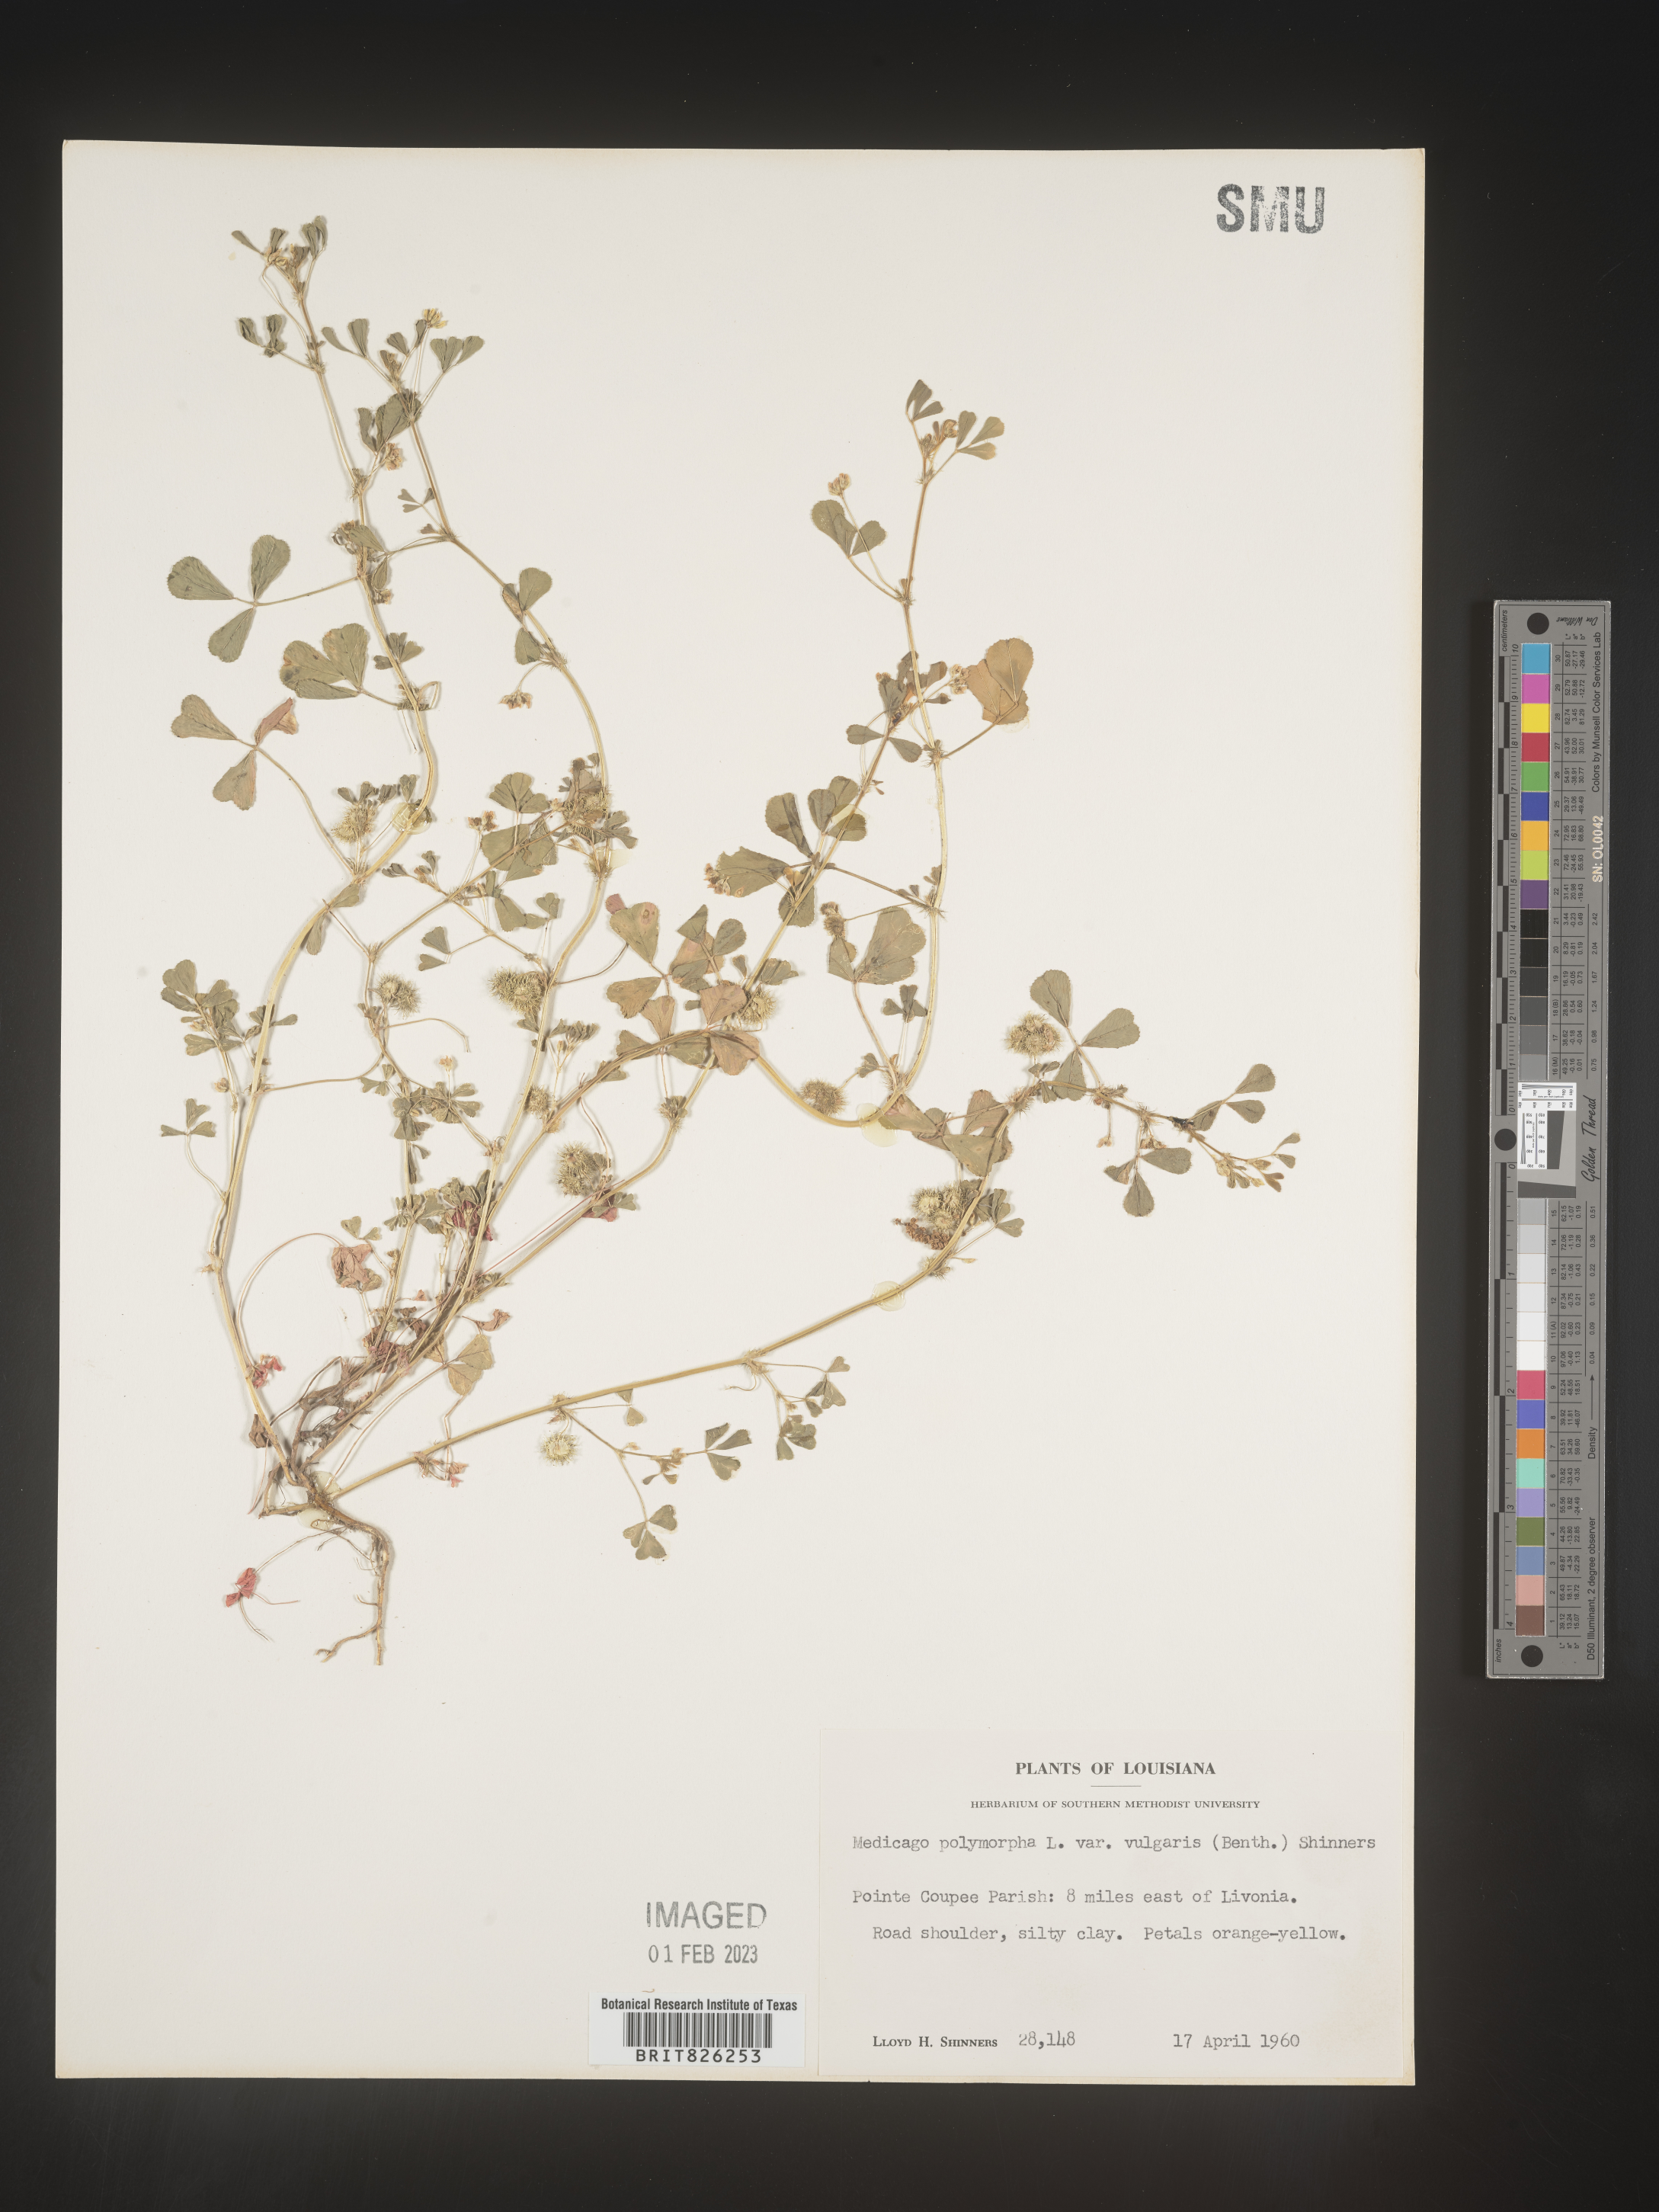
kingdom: Plantae
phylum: Tracheophyta
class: Magnoliopsida
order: Fabales
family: Fabaceae
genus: Medicago
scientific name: Medicago polymorpha
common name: Burclover
